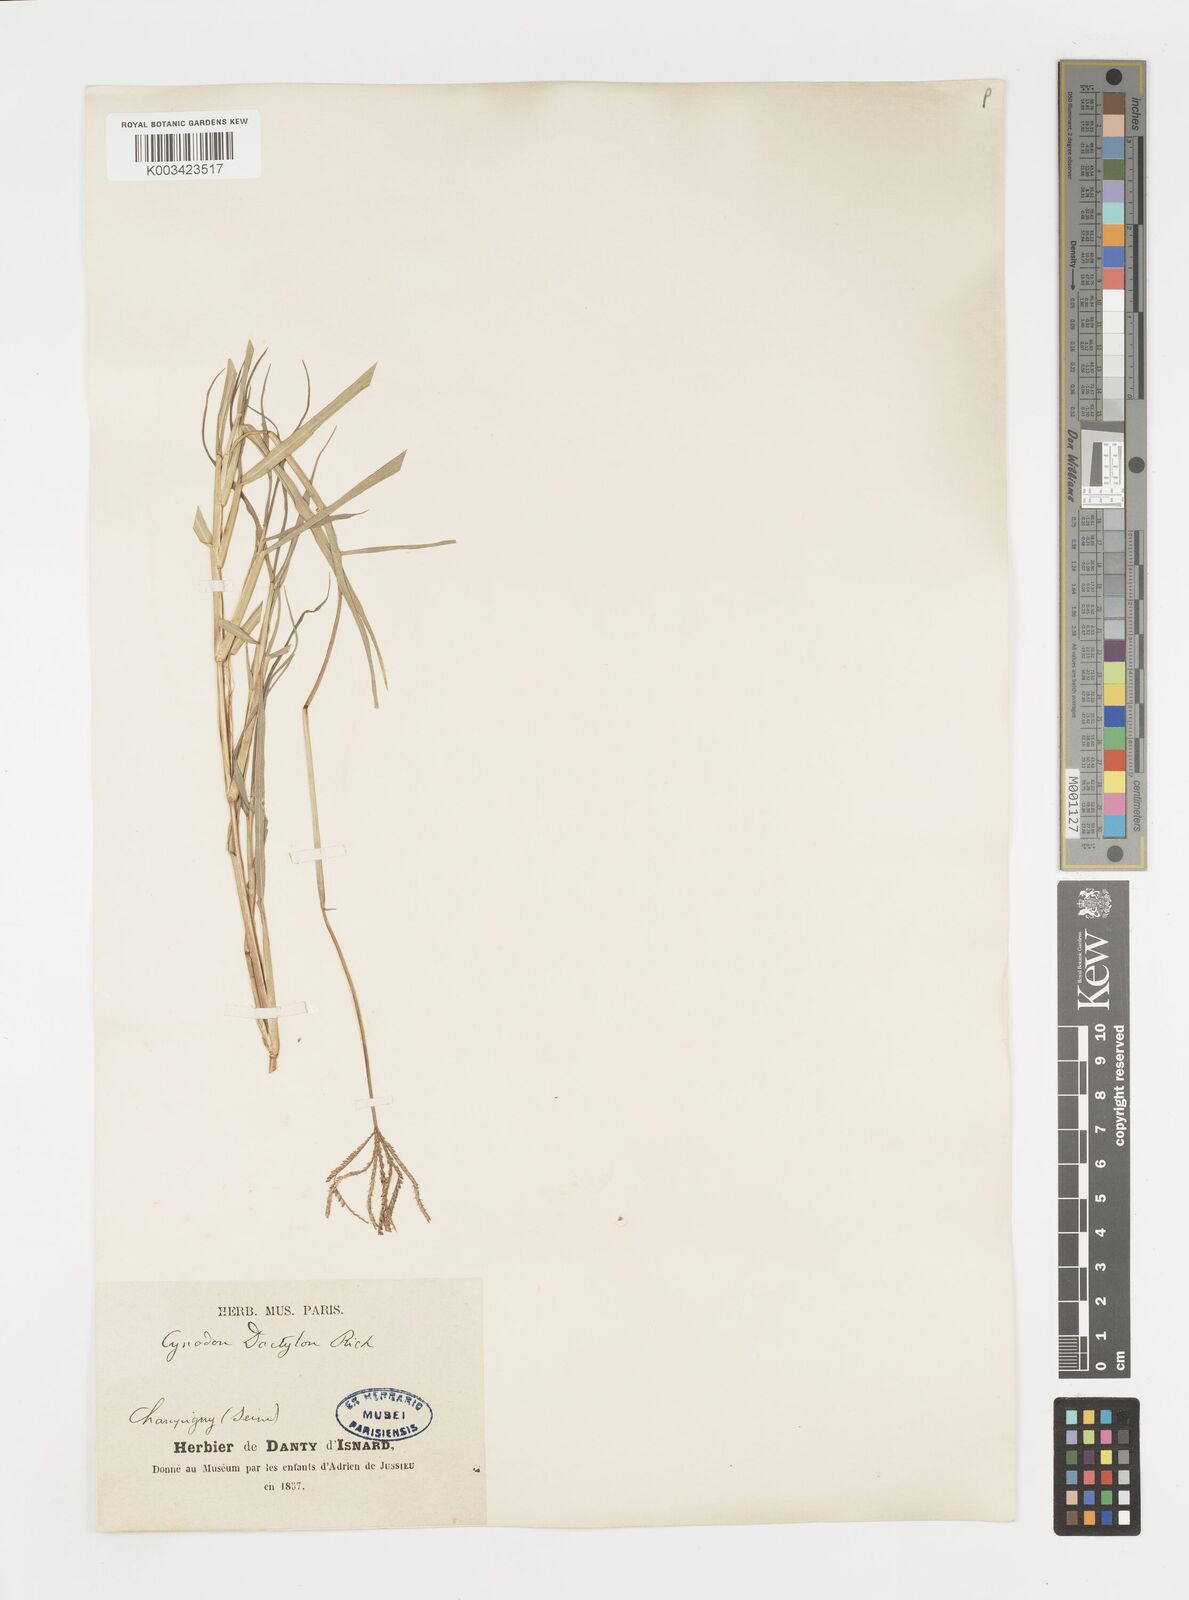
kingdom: Plantae
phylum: Tracheophyta
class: Liliopsida
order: Poales
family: Poaceae
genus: Cynodon
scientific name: Cynodon dactylon
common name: Bermuda grass
